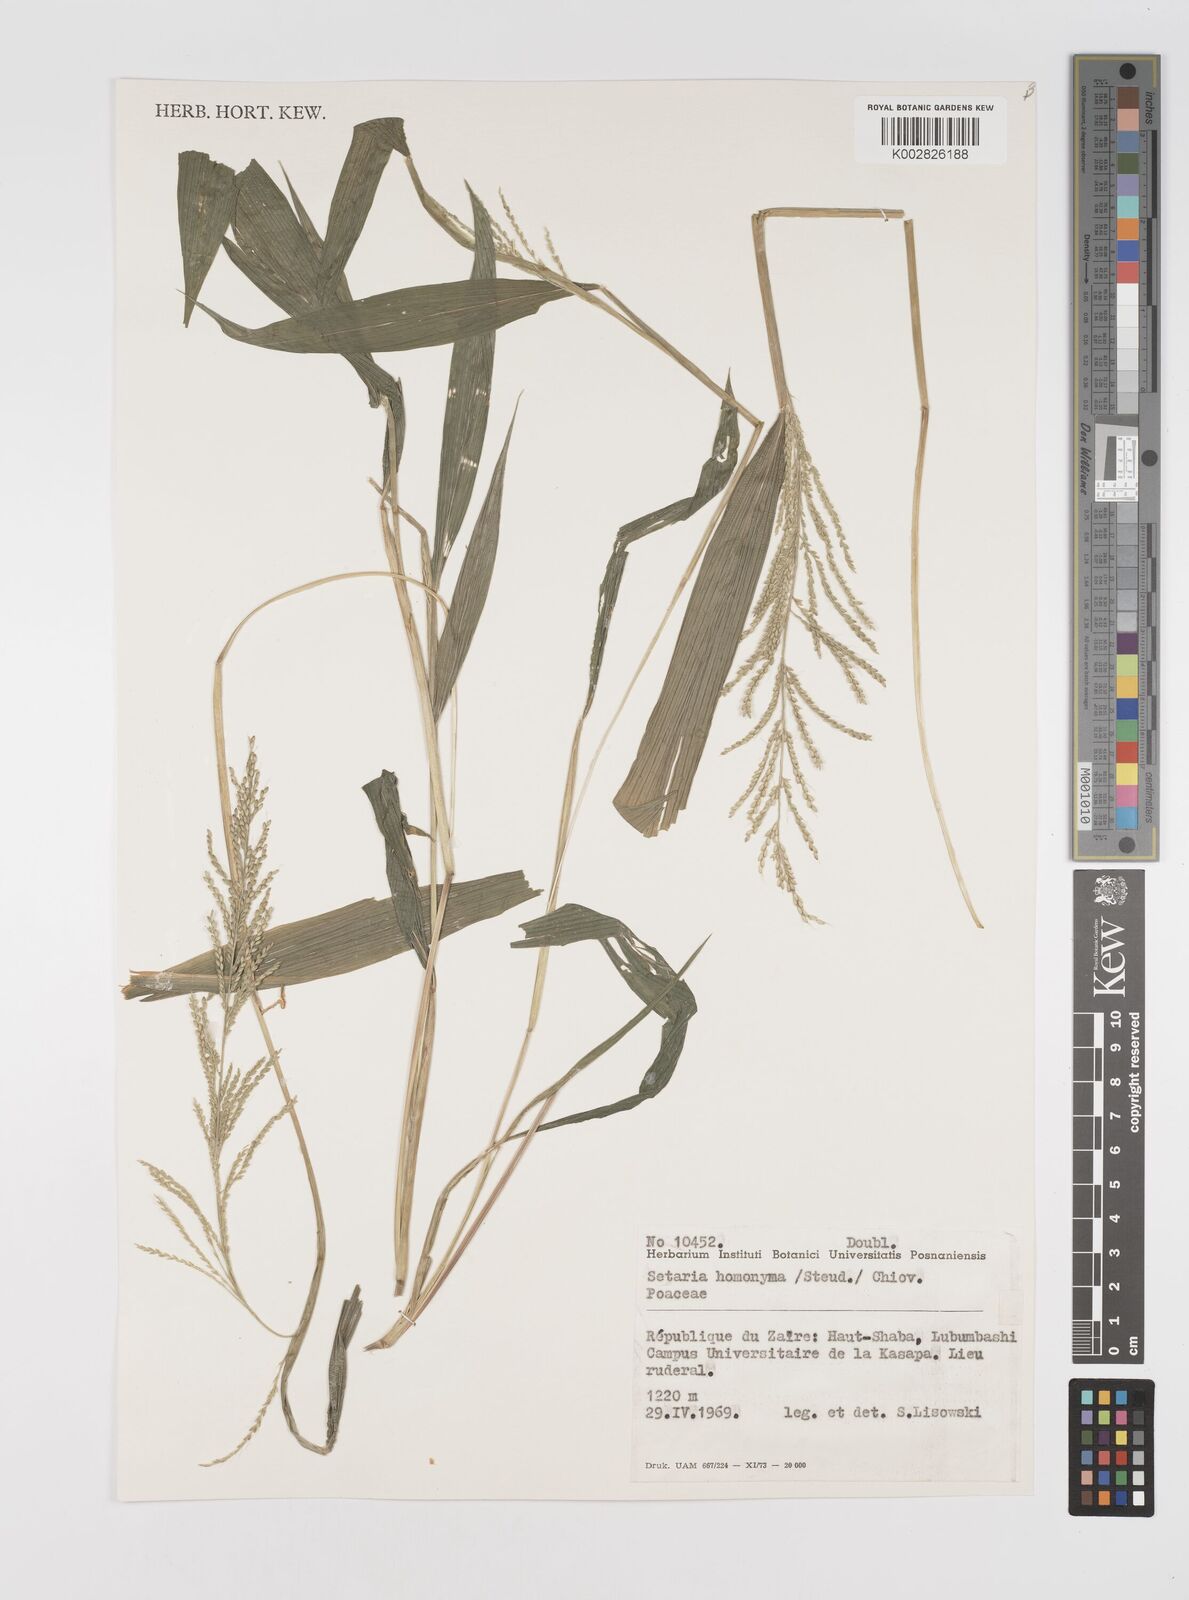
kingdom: Plantae
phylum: Tracheophyta
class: Liliopsida
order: Poales
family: Poaceae
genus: Setaria
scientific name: Setaria homonyma
